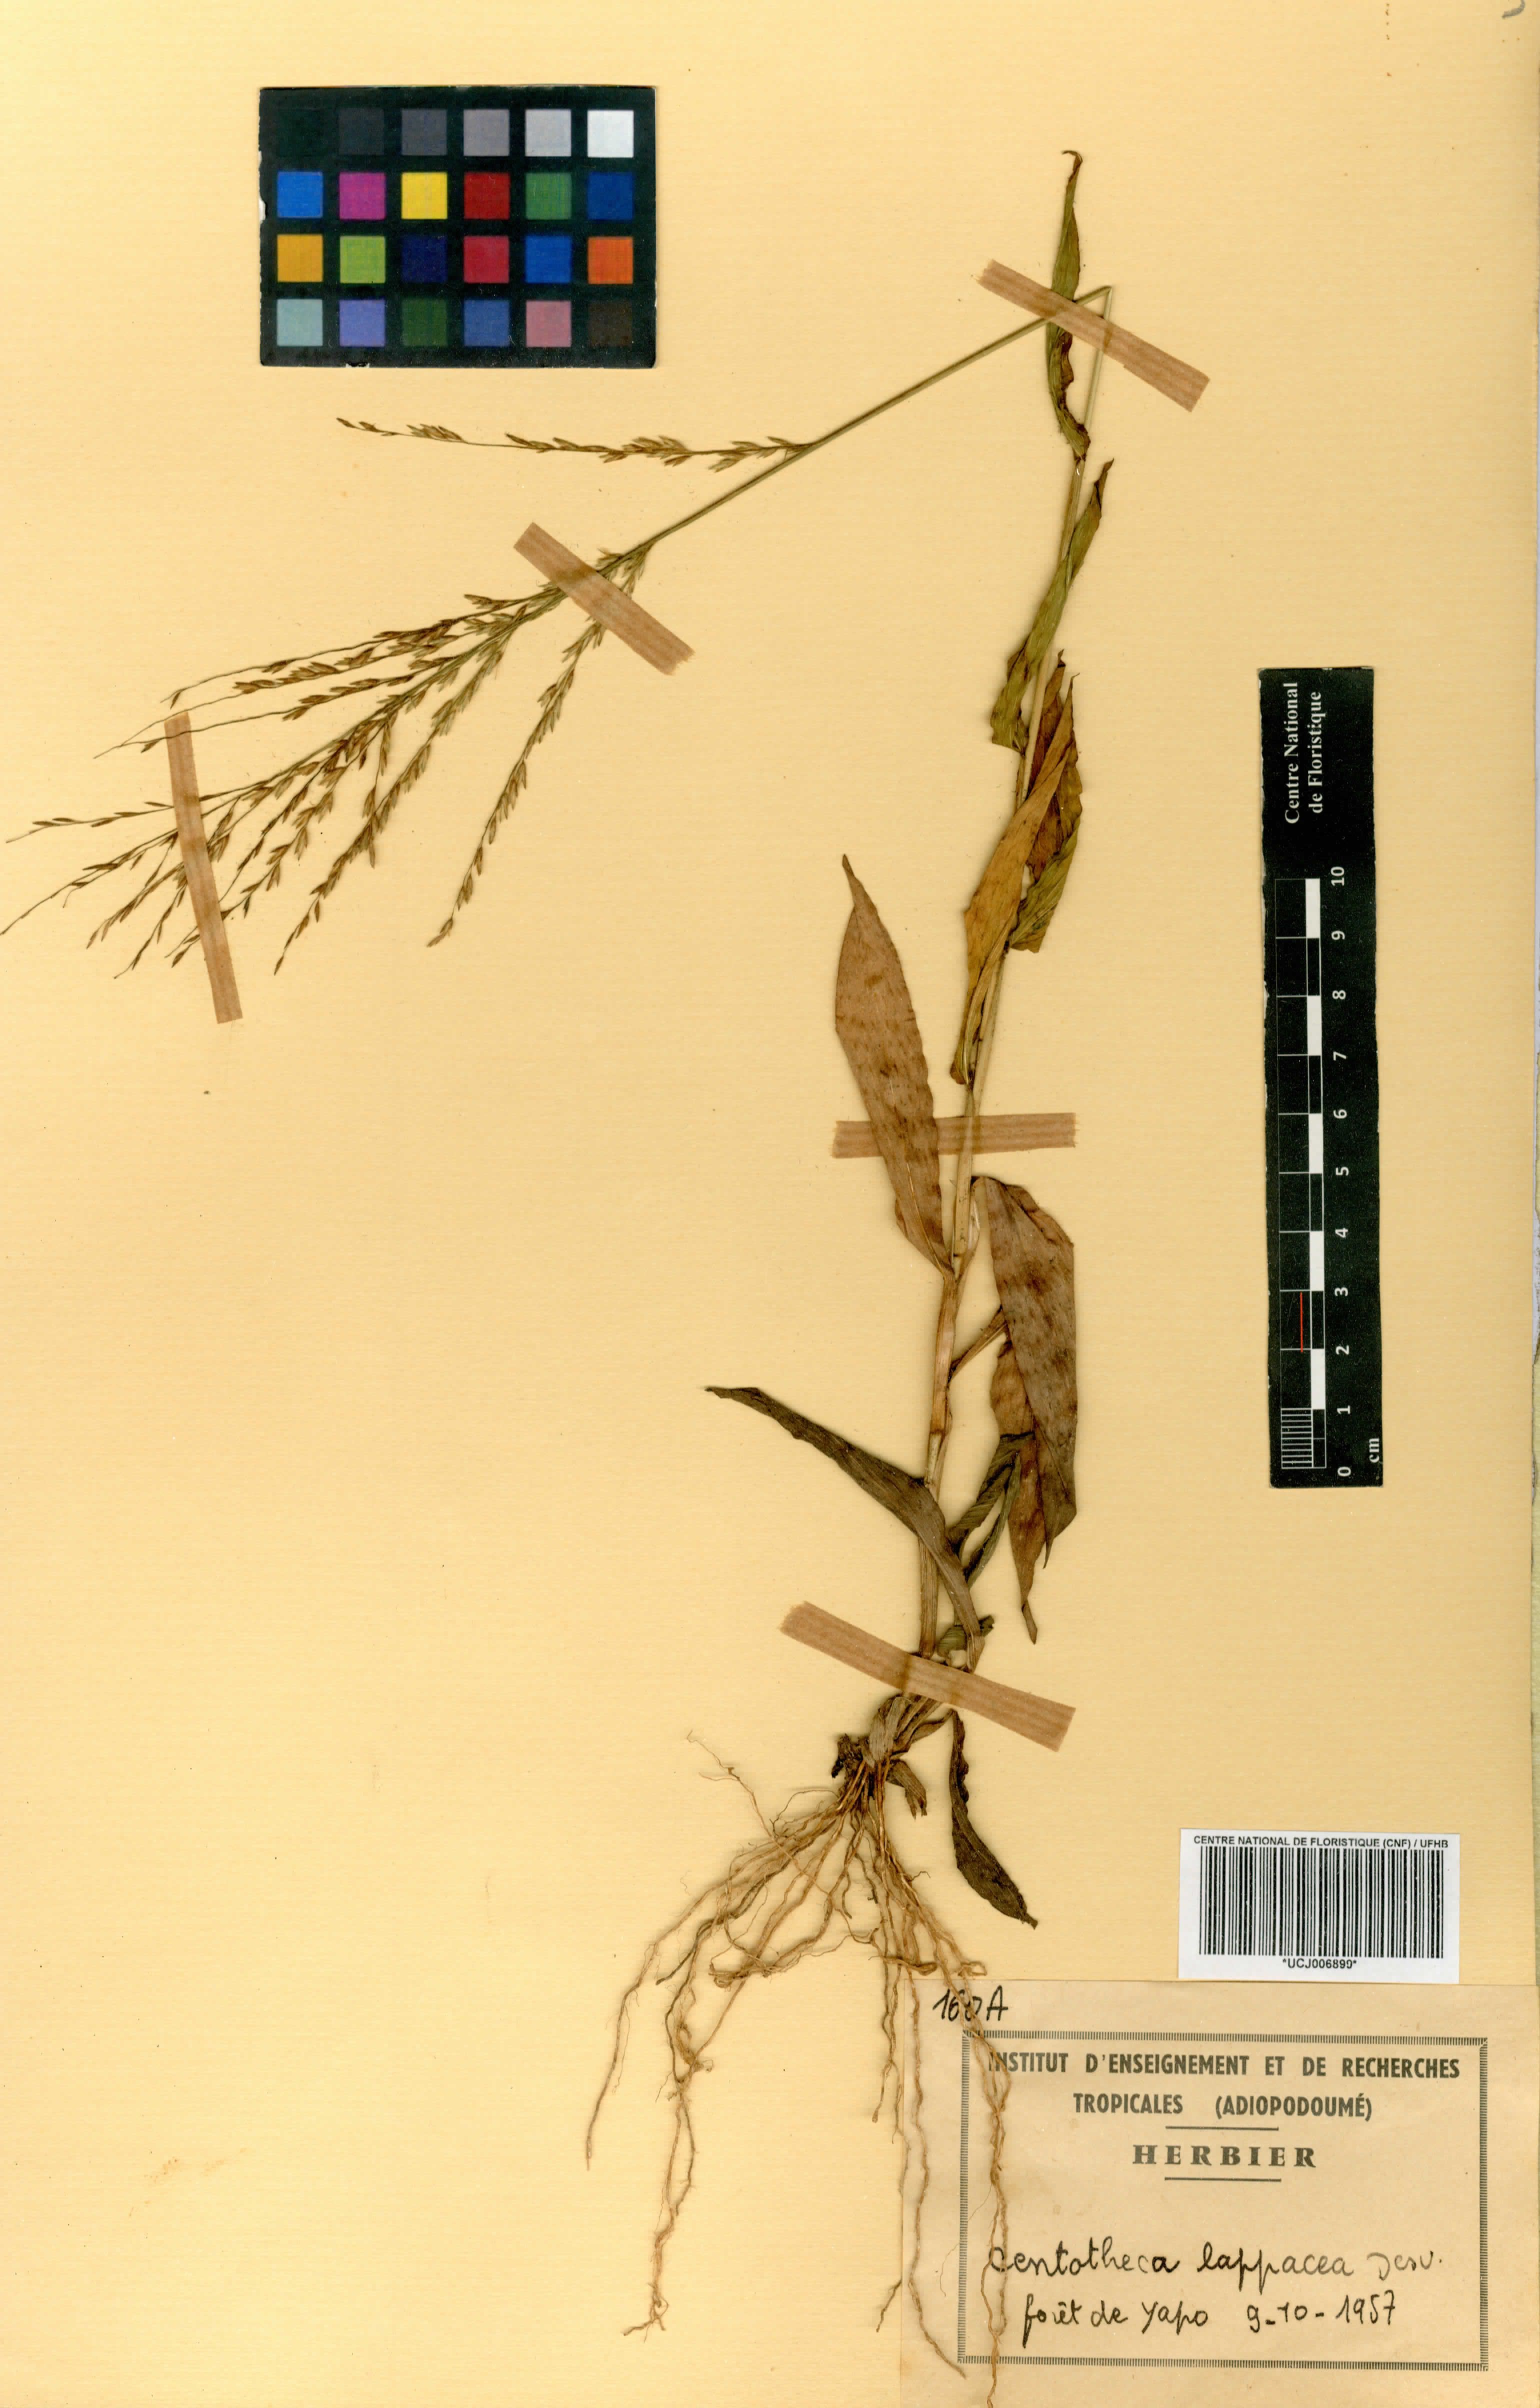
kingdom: Plantae
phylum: Tracheophyta
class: Liliopsida
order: Poales
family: Poaceae
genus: Centotheca
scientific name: Centotheca lappacea
